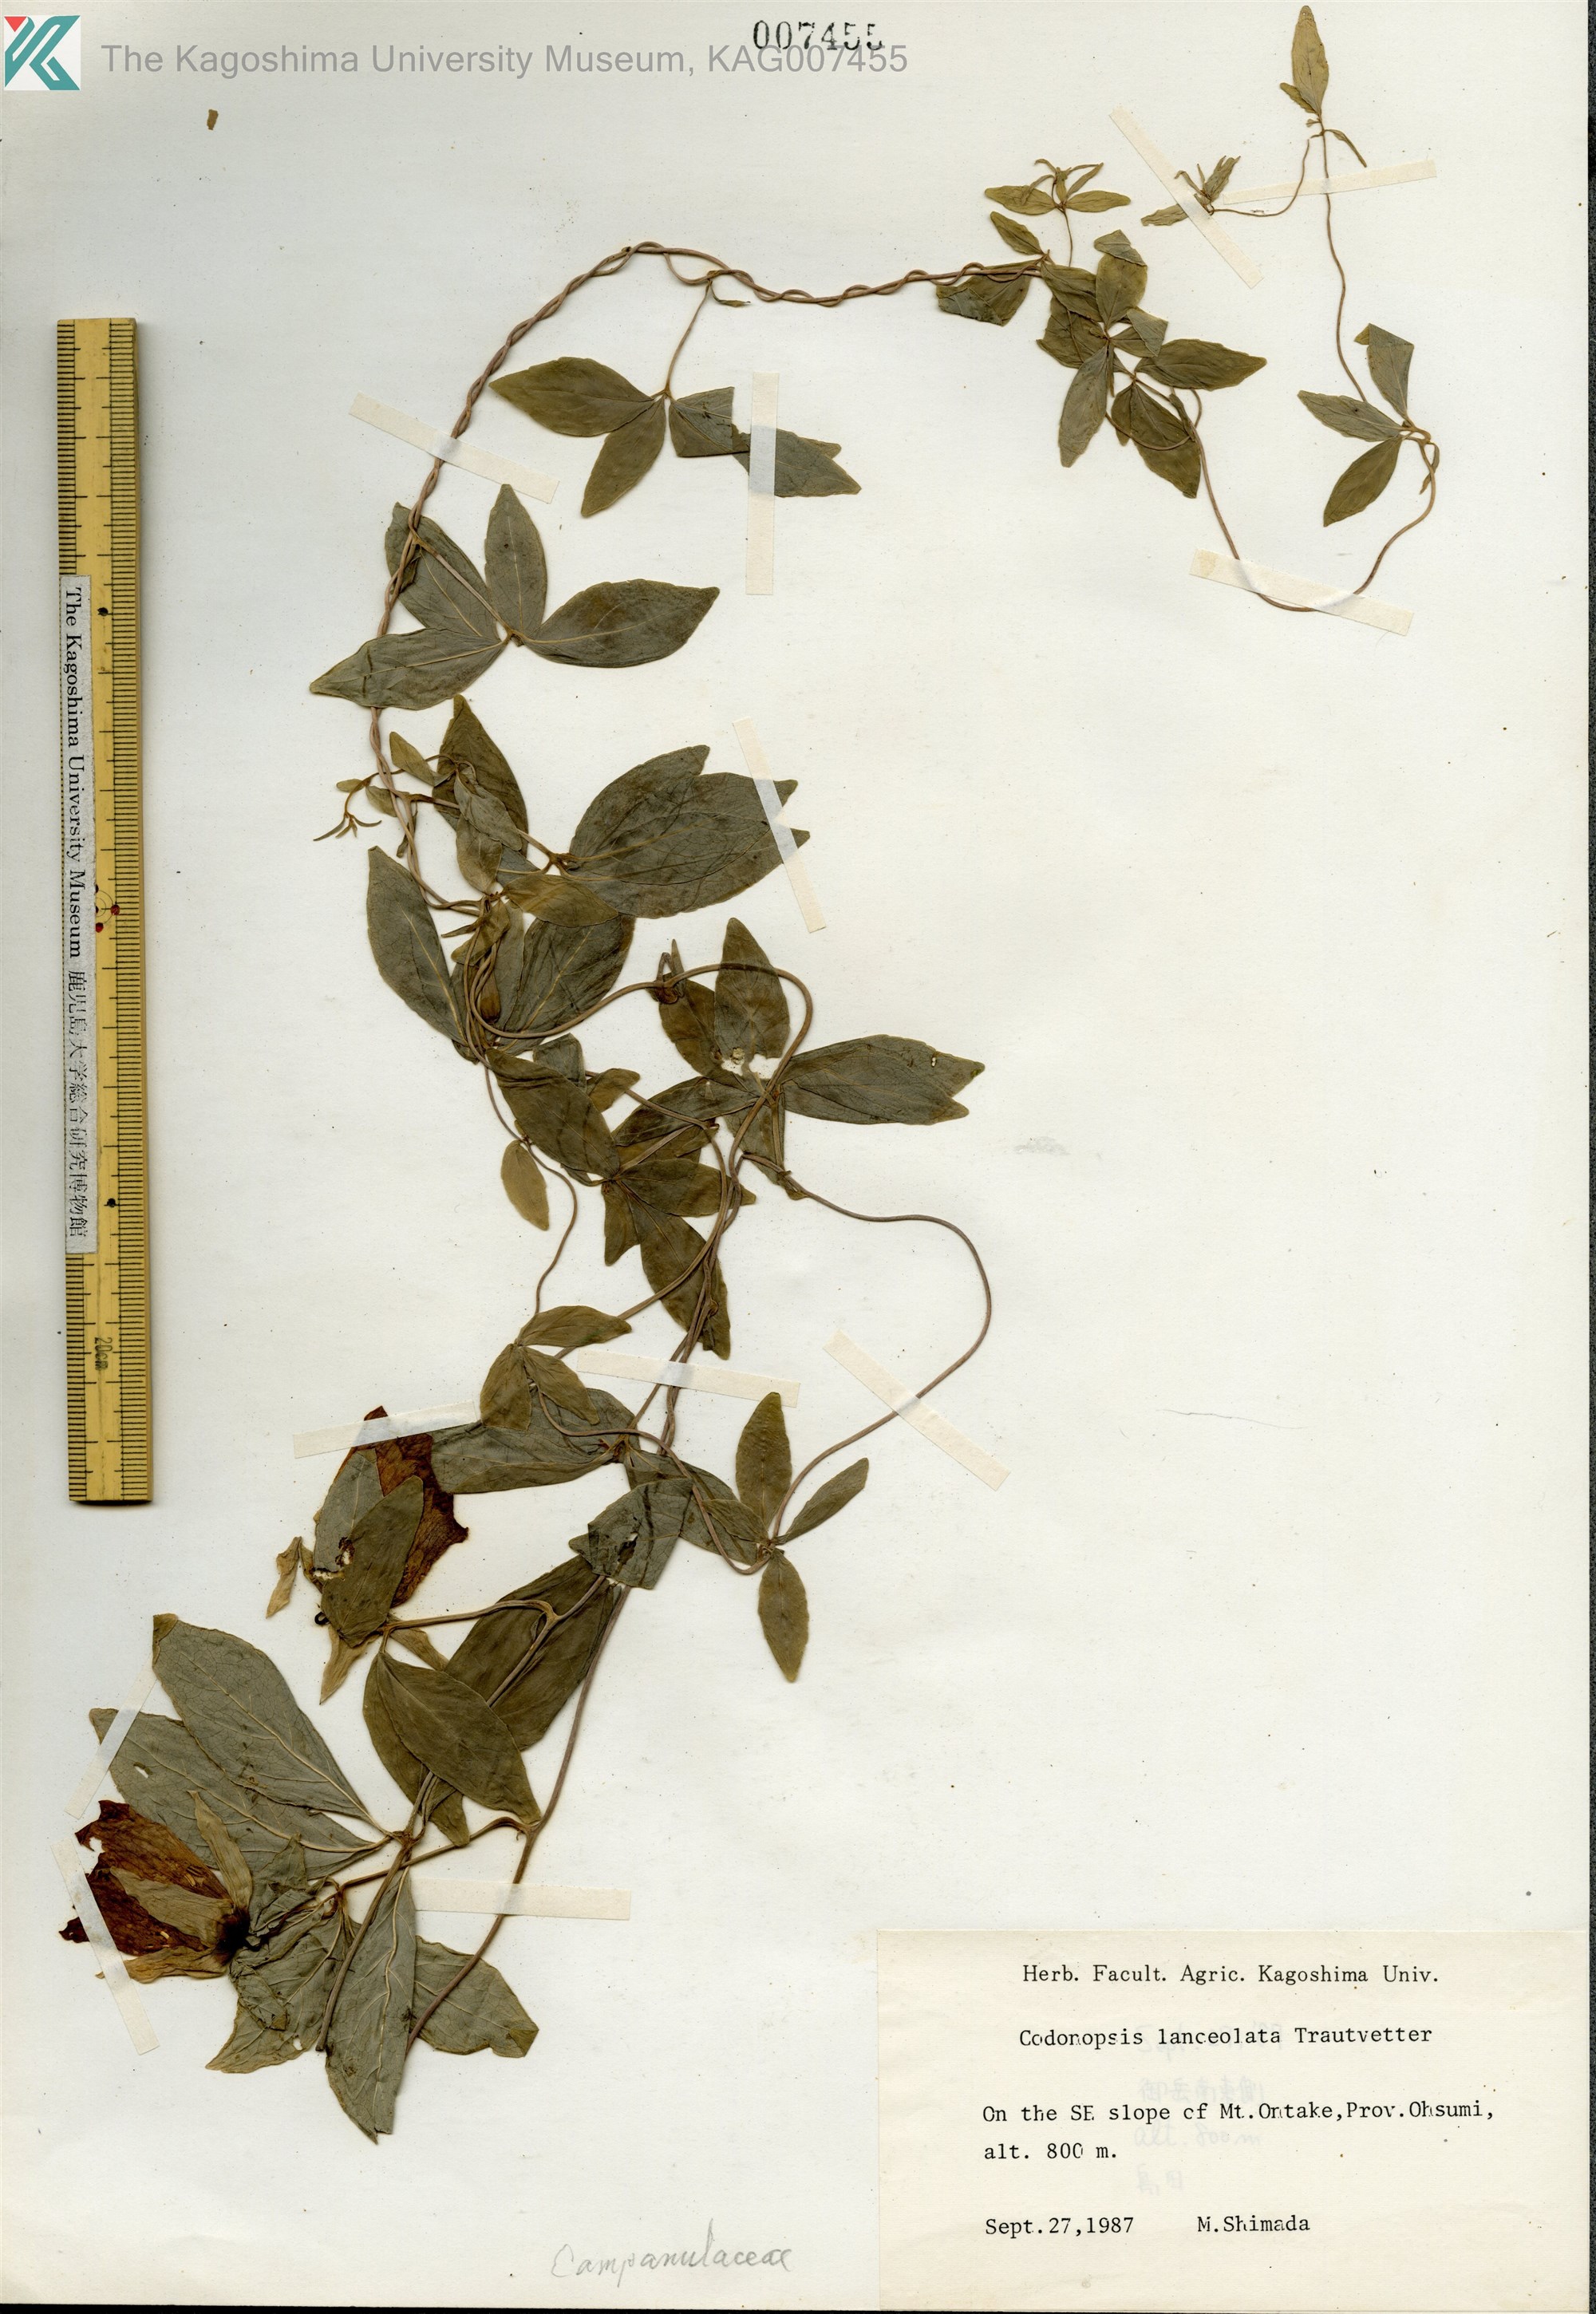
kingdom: Plantae
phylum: Tracheophyta
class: Magnoliopsida
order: Asterales
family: Campanulaceae
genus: Codonopsis
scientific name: Codonopsis lanceolata
